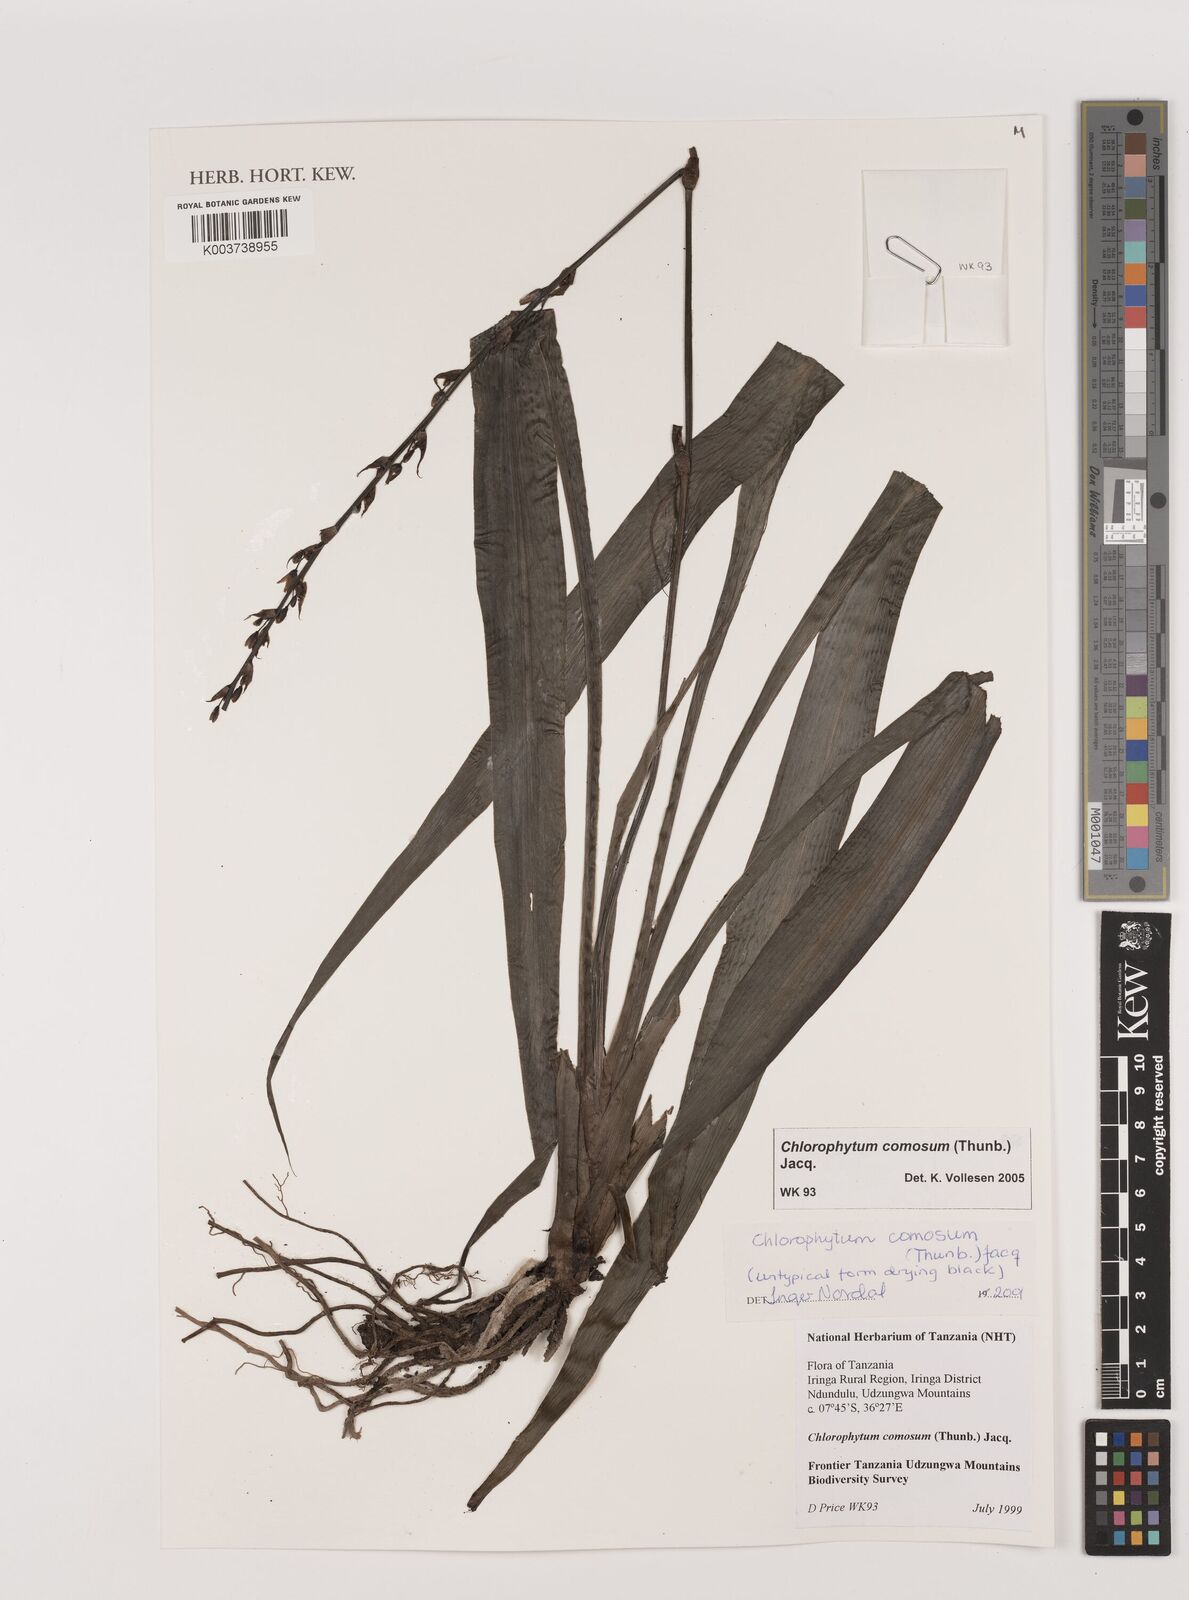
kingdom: Plantae
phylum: Tracheophyta
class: Liliopsida
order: Asparagales
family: Asparagaceae
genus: Chlorophytum
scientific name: Chlorophytum comosum
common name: Spider plant
